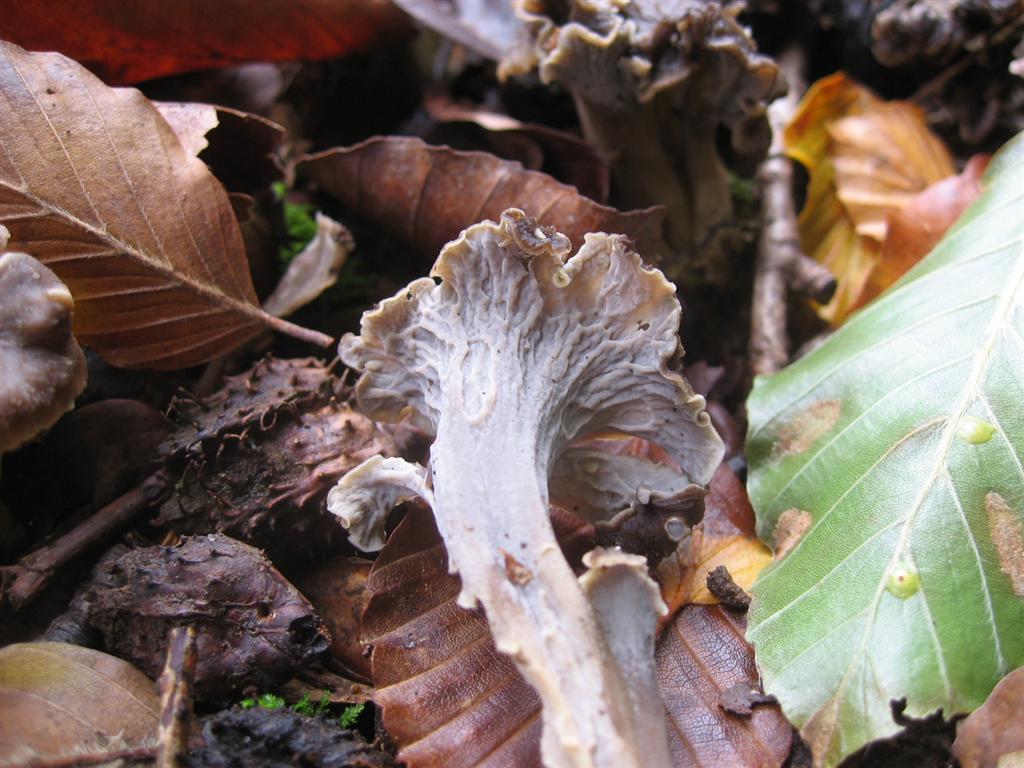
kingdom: Fungi
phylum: Basidiomycota
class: Agaricomycetes
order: Cantharellales
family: Hydnaceae
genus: Craterellus
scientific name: Craterellus undulatus
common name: liden kantarel
